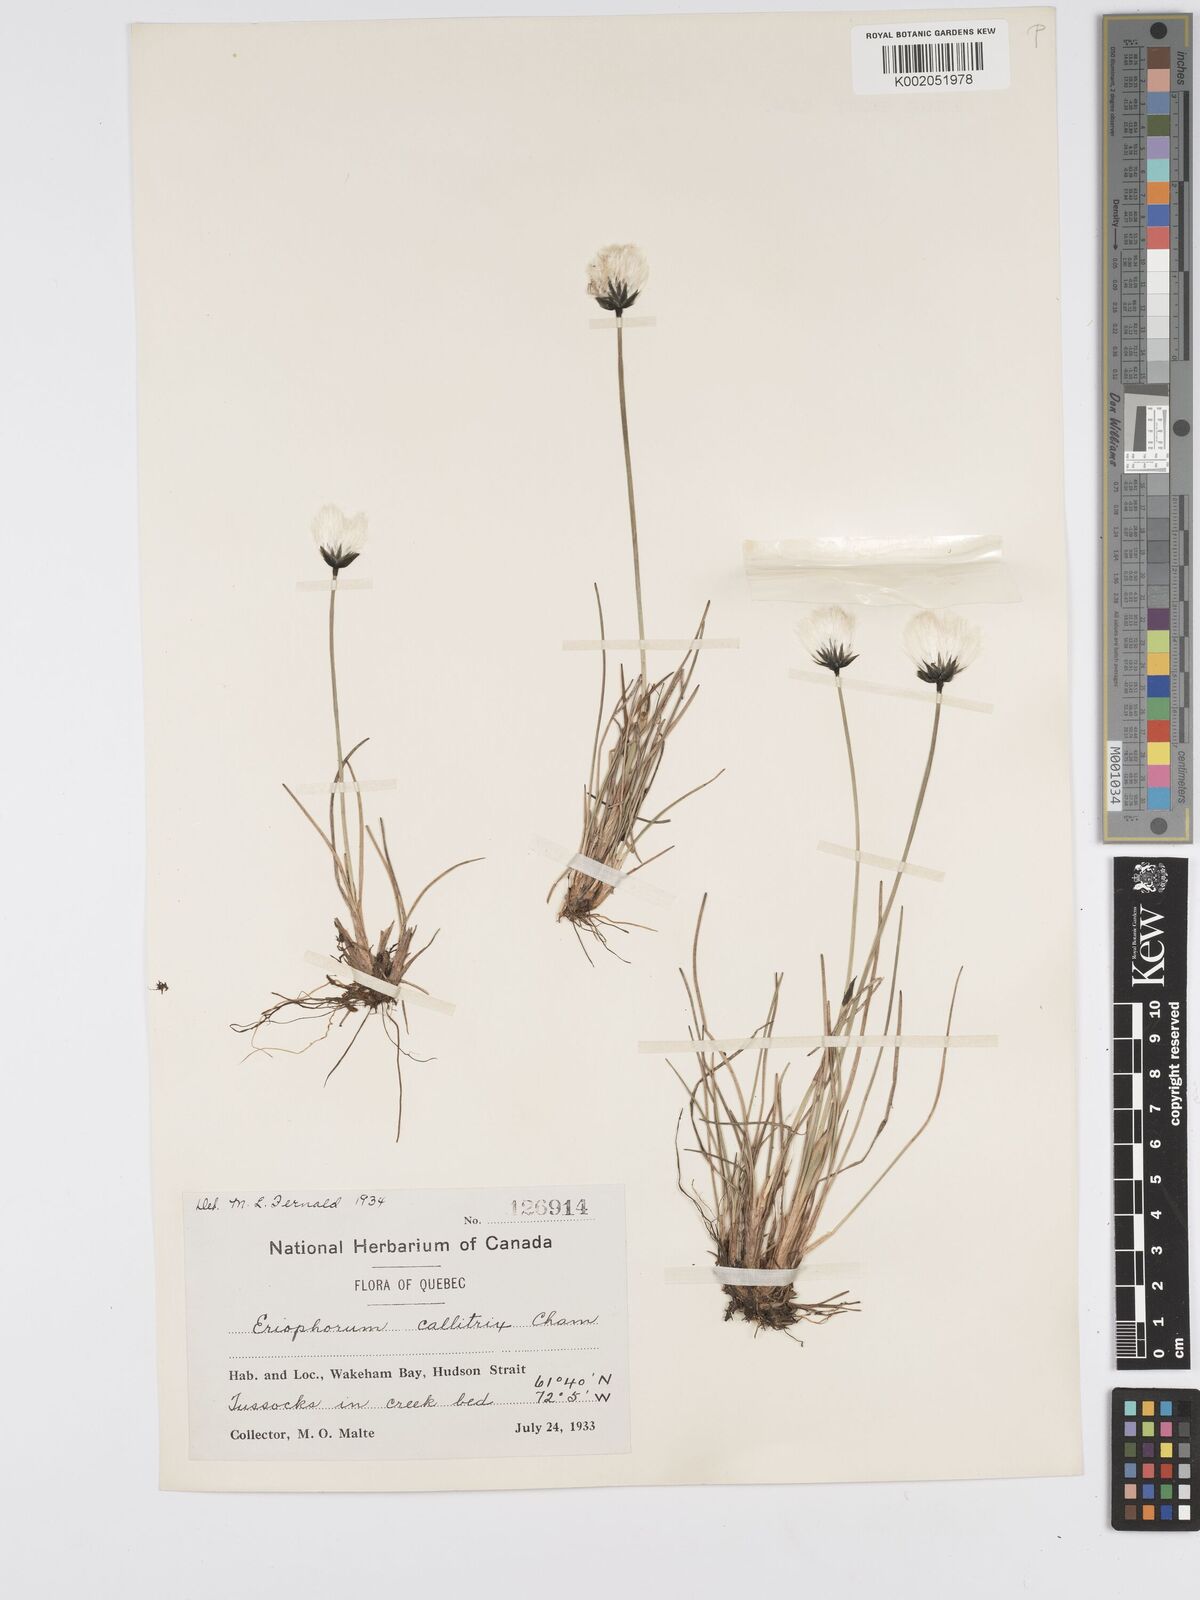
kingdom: Plantae
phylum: Tracheophyta
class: Liliopsida
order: Poales
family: Cyperaceae
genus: Eriophorum
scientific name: Eriophorum callitrix
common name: Arctic cottongrass
